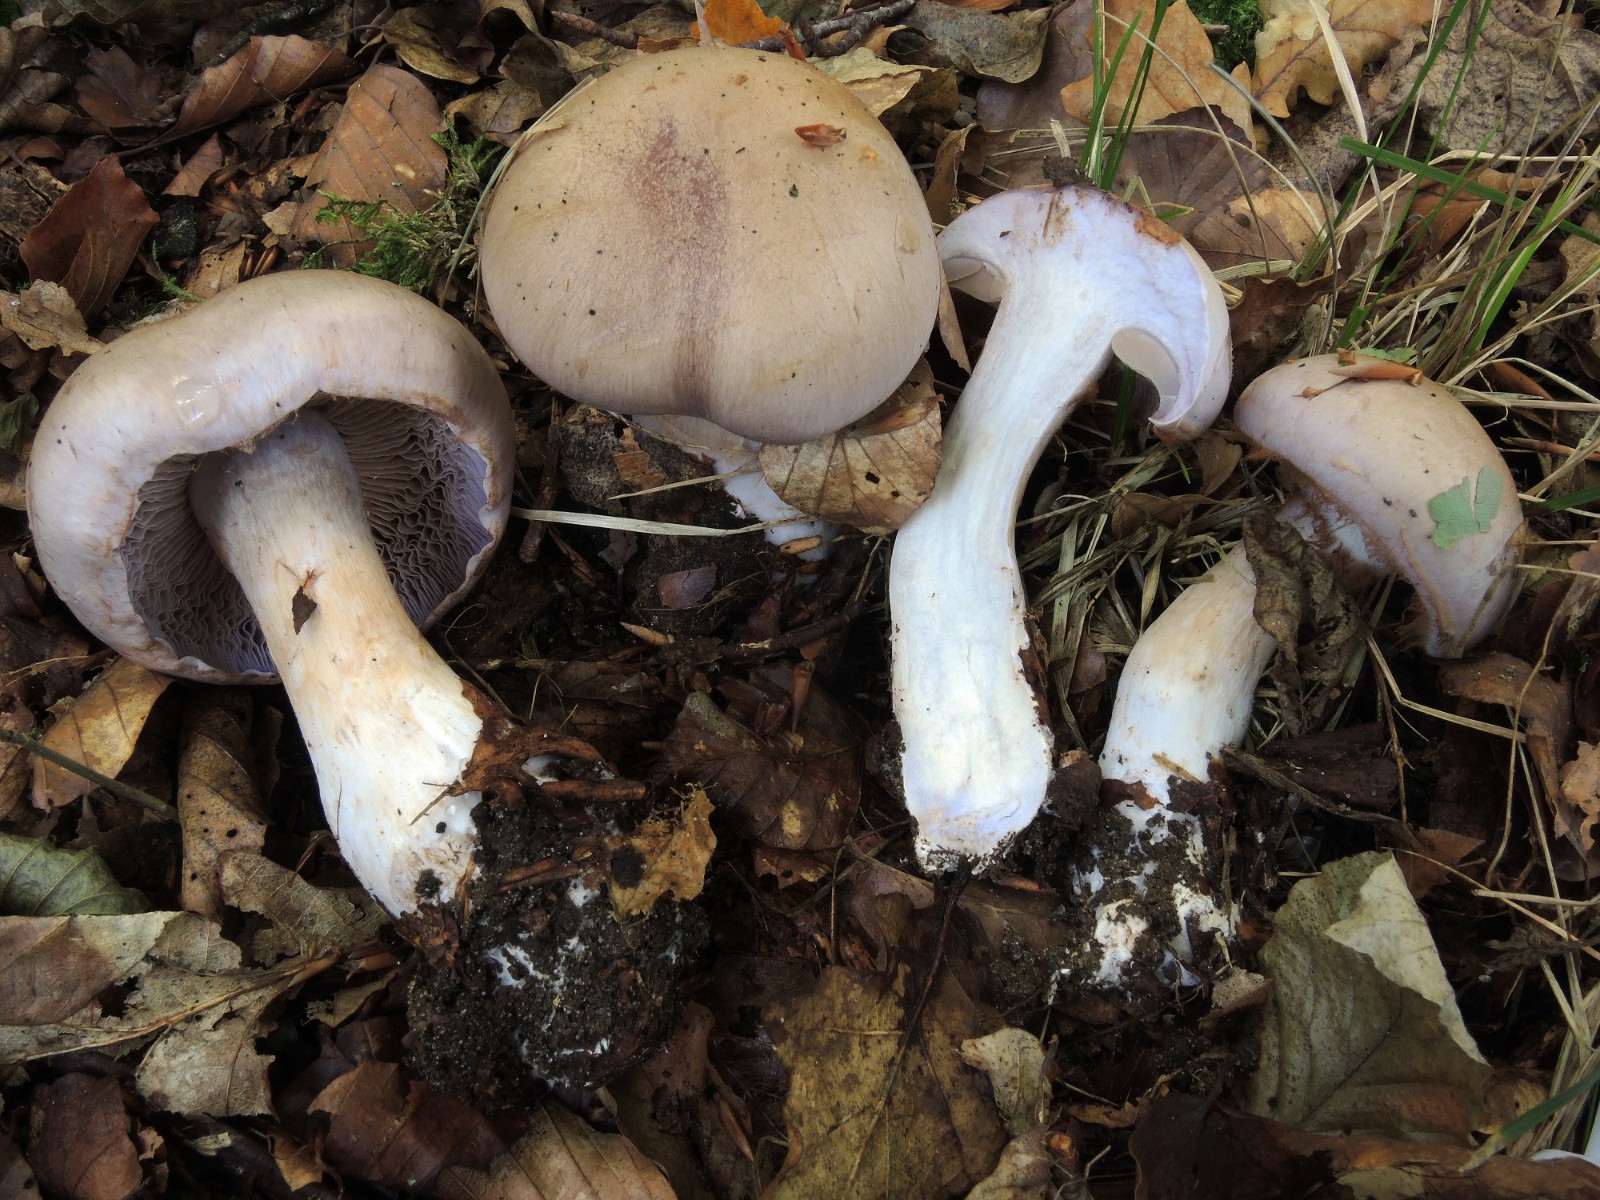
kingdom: Fungi
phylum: Basidiomycota
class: Agaricomycetes
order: Agaricales
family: Cortinariaceae
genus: Cortinarius
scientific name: Cortinarius largus
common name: violetrandet slørhat
